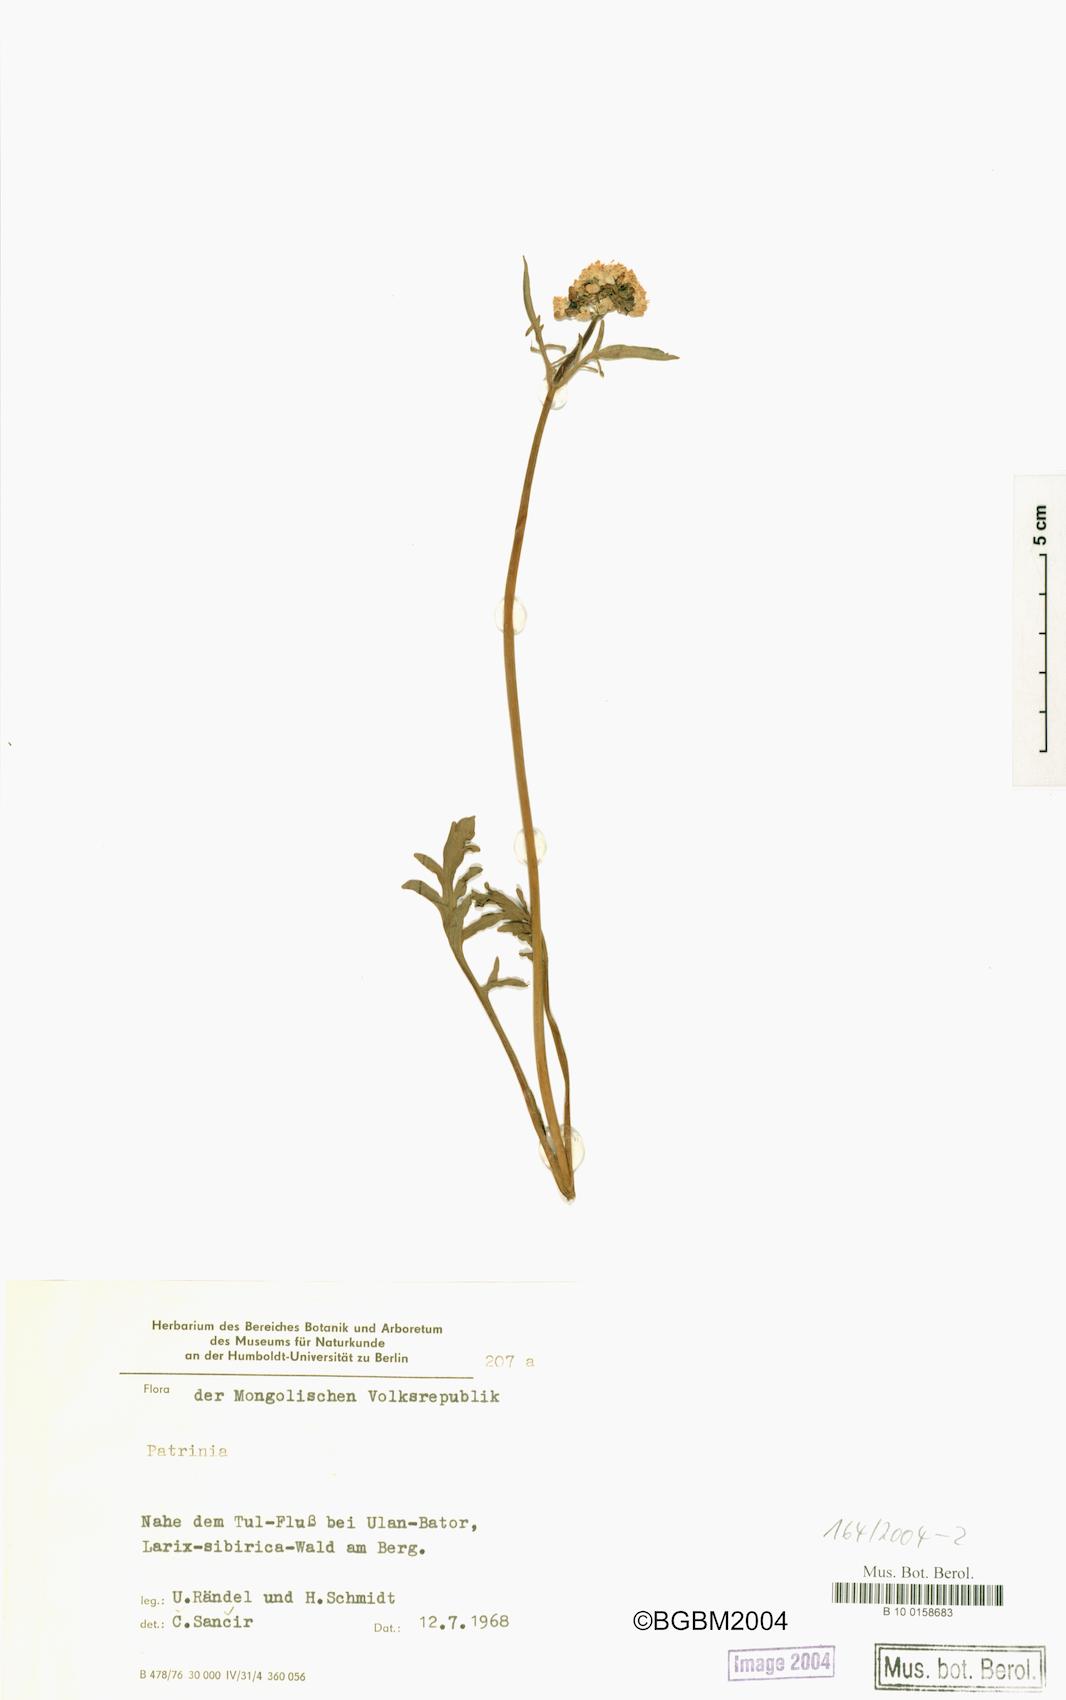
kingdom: Plantae
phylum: Tracheophyta
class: Magnoliopsida
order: Dipsacales
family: Caprifoliaceae
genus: Patrinia
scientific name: Patrinia
